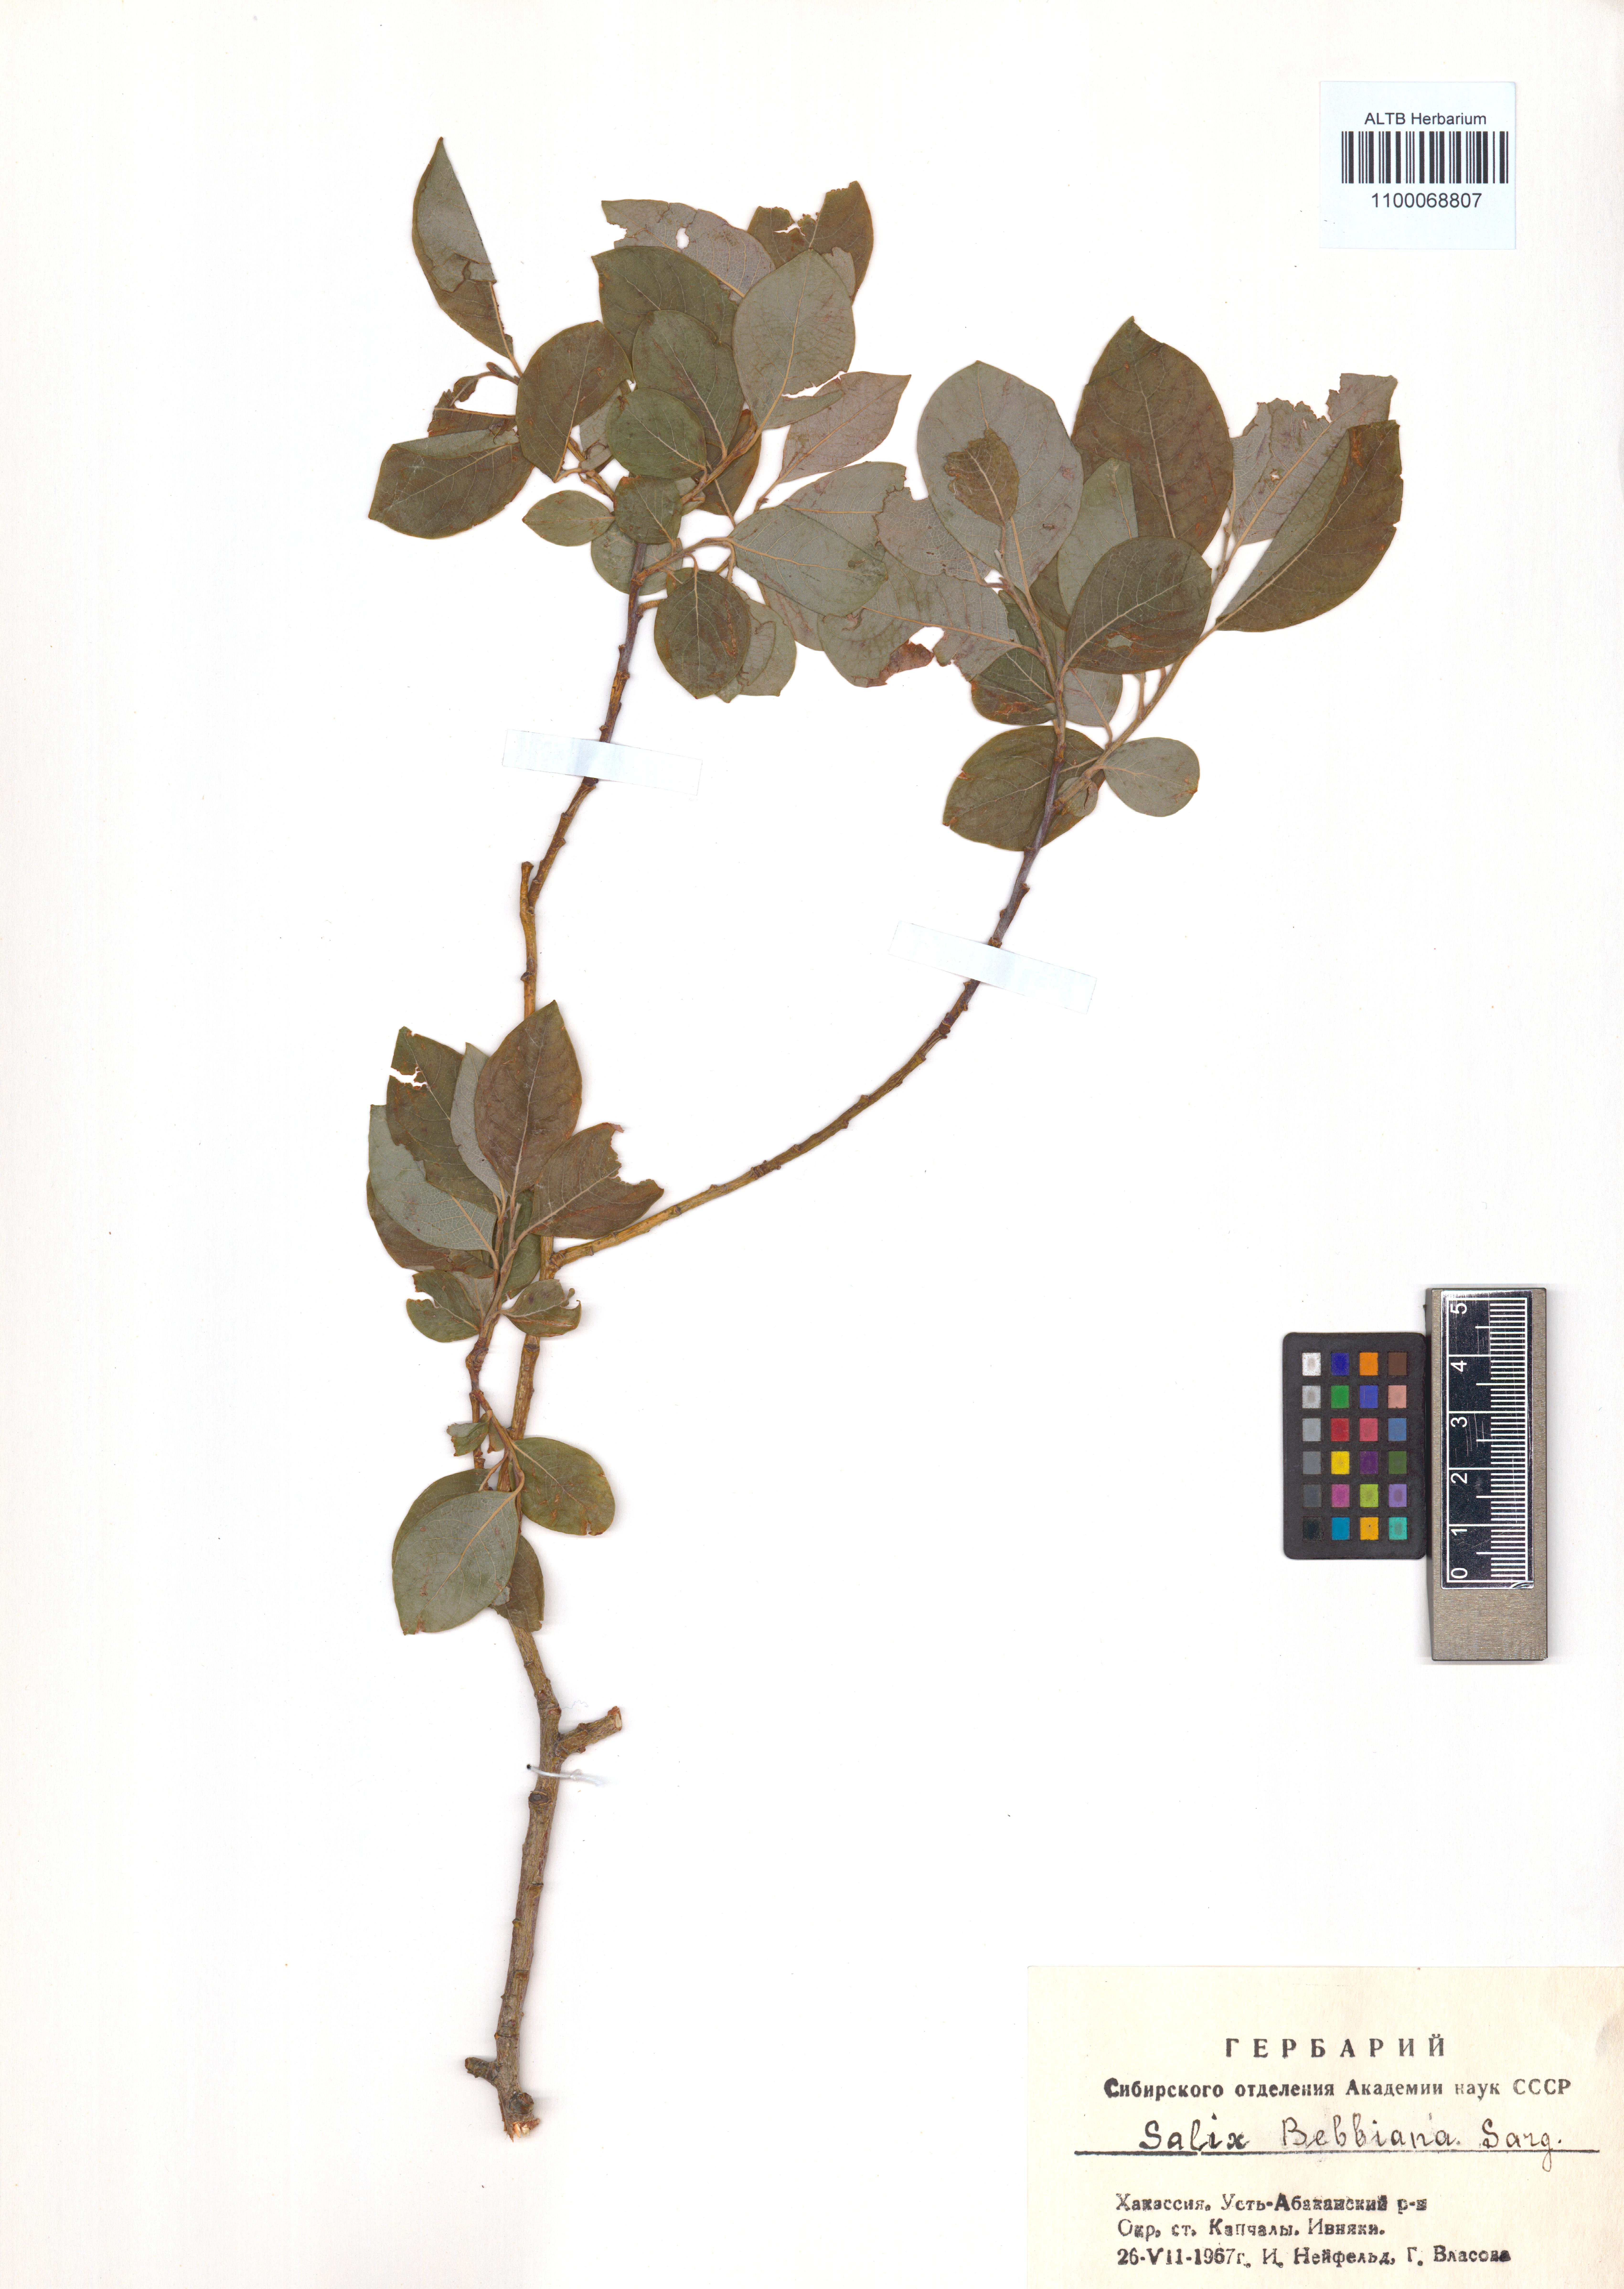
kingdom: Plantae
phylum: Tracheophyta
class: Magnoliopsida
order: Malpighiales
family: Salicaceae
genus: Salix
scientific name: Salix bebbiana
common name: Bebb's willow
